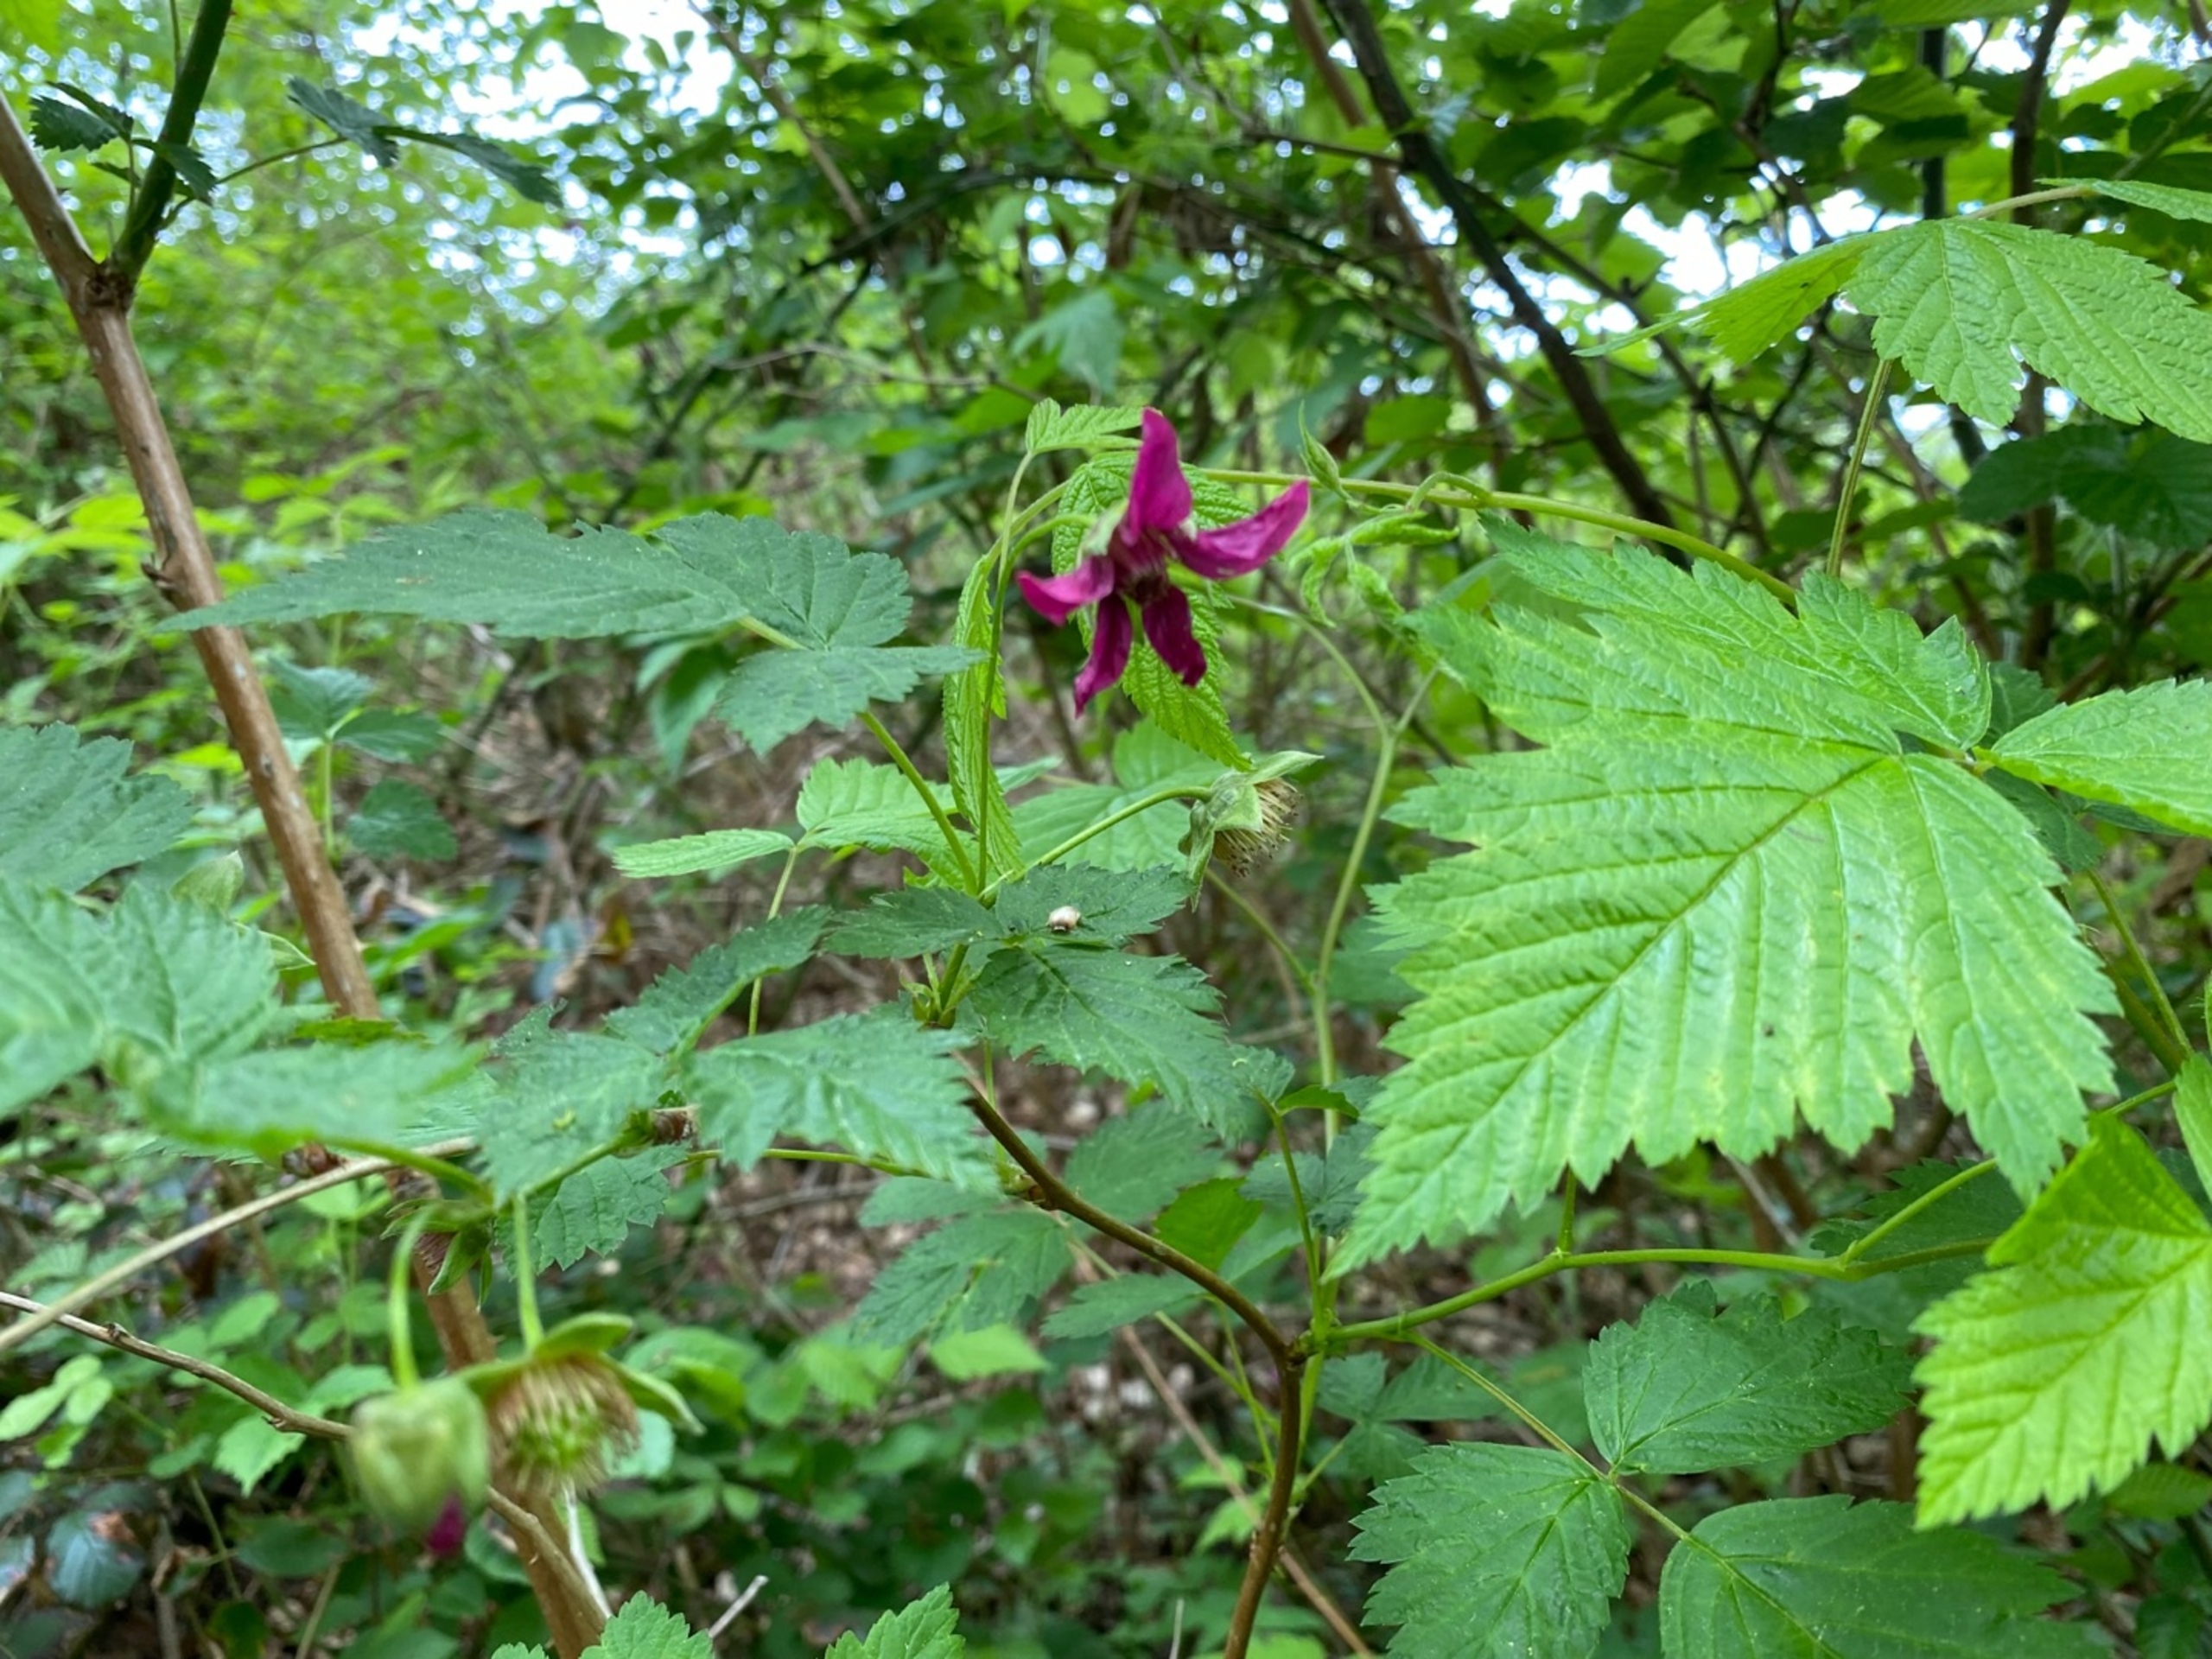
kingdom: Plantae
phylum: Tracheophyta
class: Magnoliopsida
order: Rosales
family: Rosaceae
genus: Rubus
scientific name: Rubus spectabilis
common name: Laksebær
